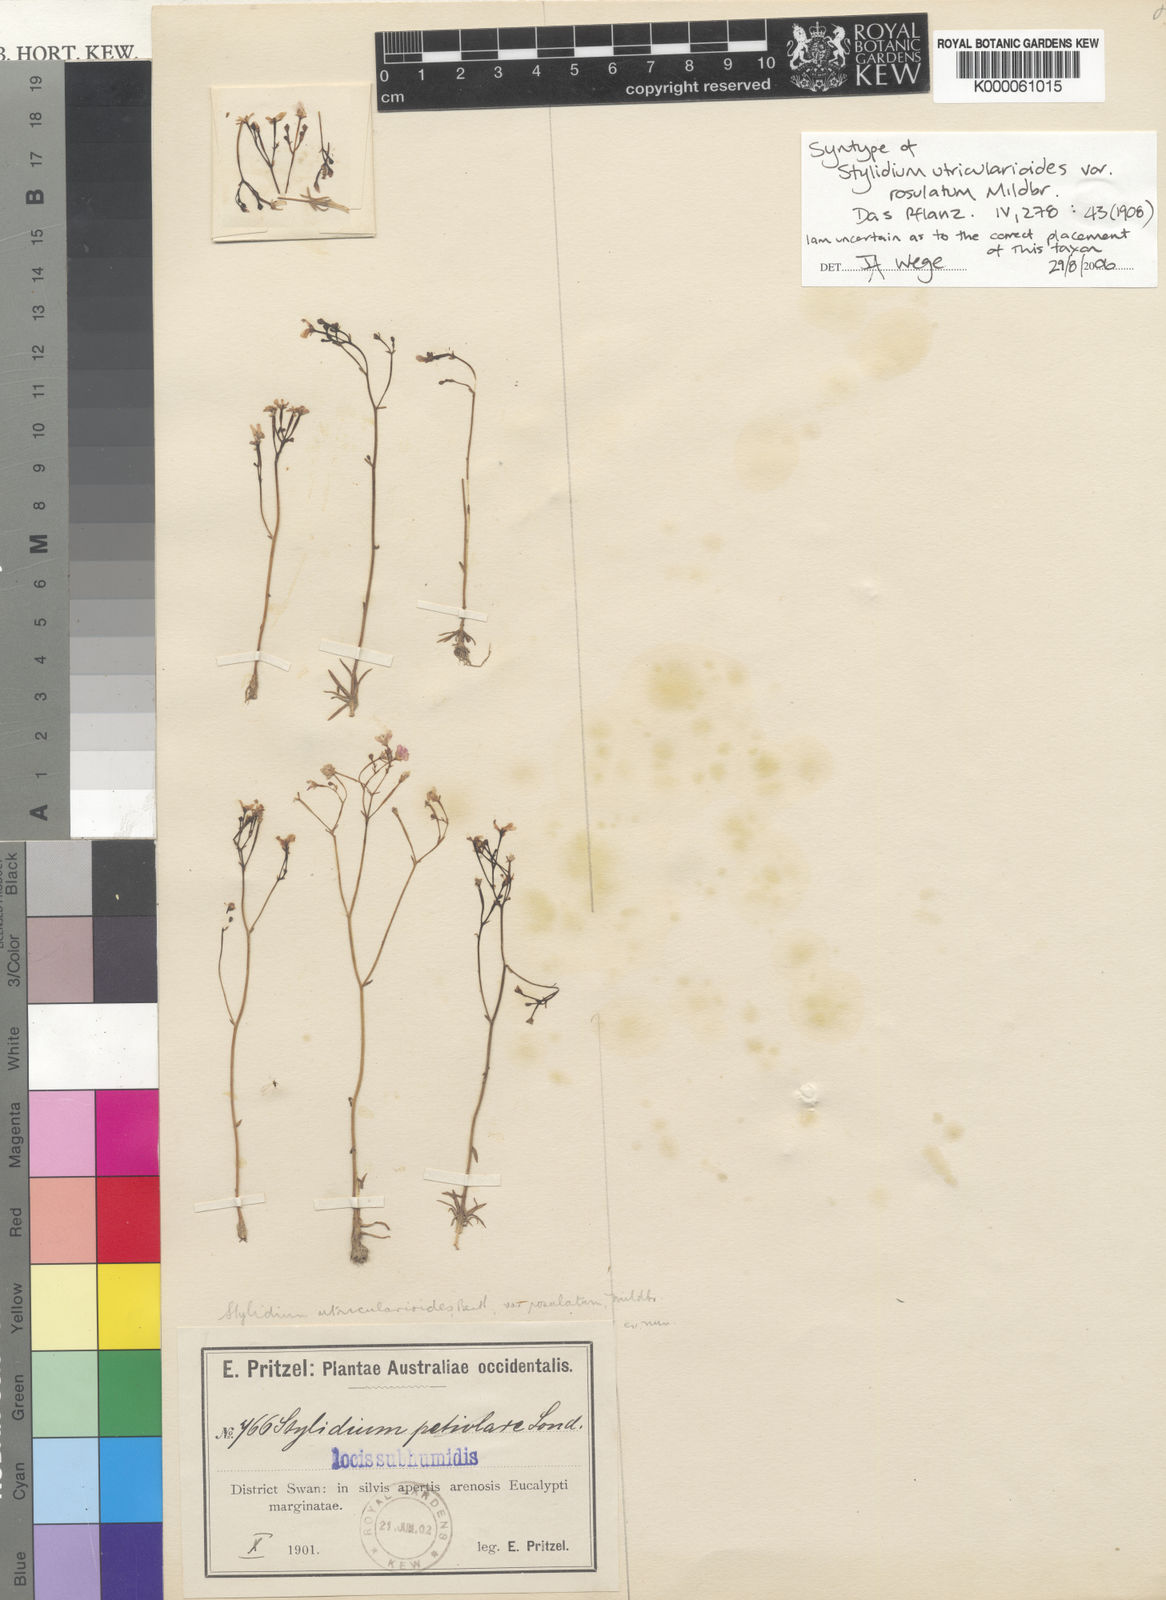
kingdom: Plantae
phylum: Tracheophyta
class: Magnoliopsida
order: Asterales
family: Stylidiaceae
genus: Stylidium
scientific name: Stylidium utricularioides
